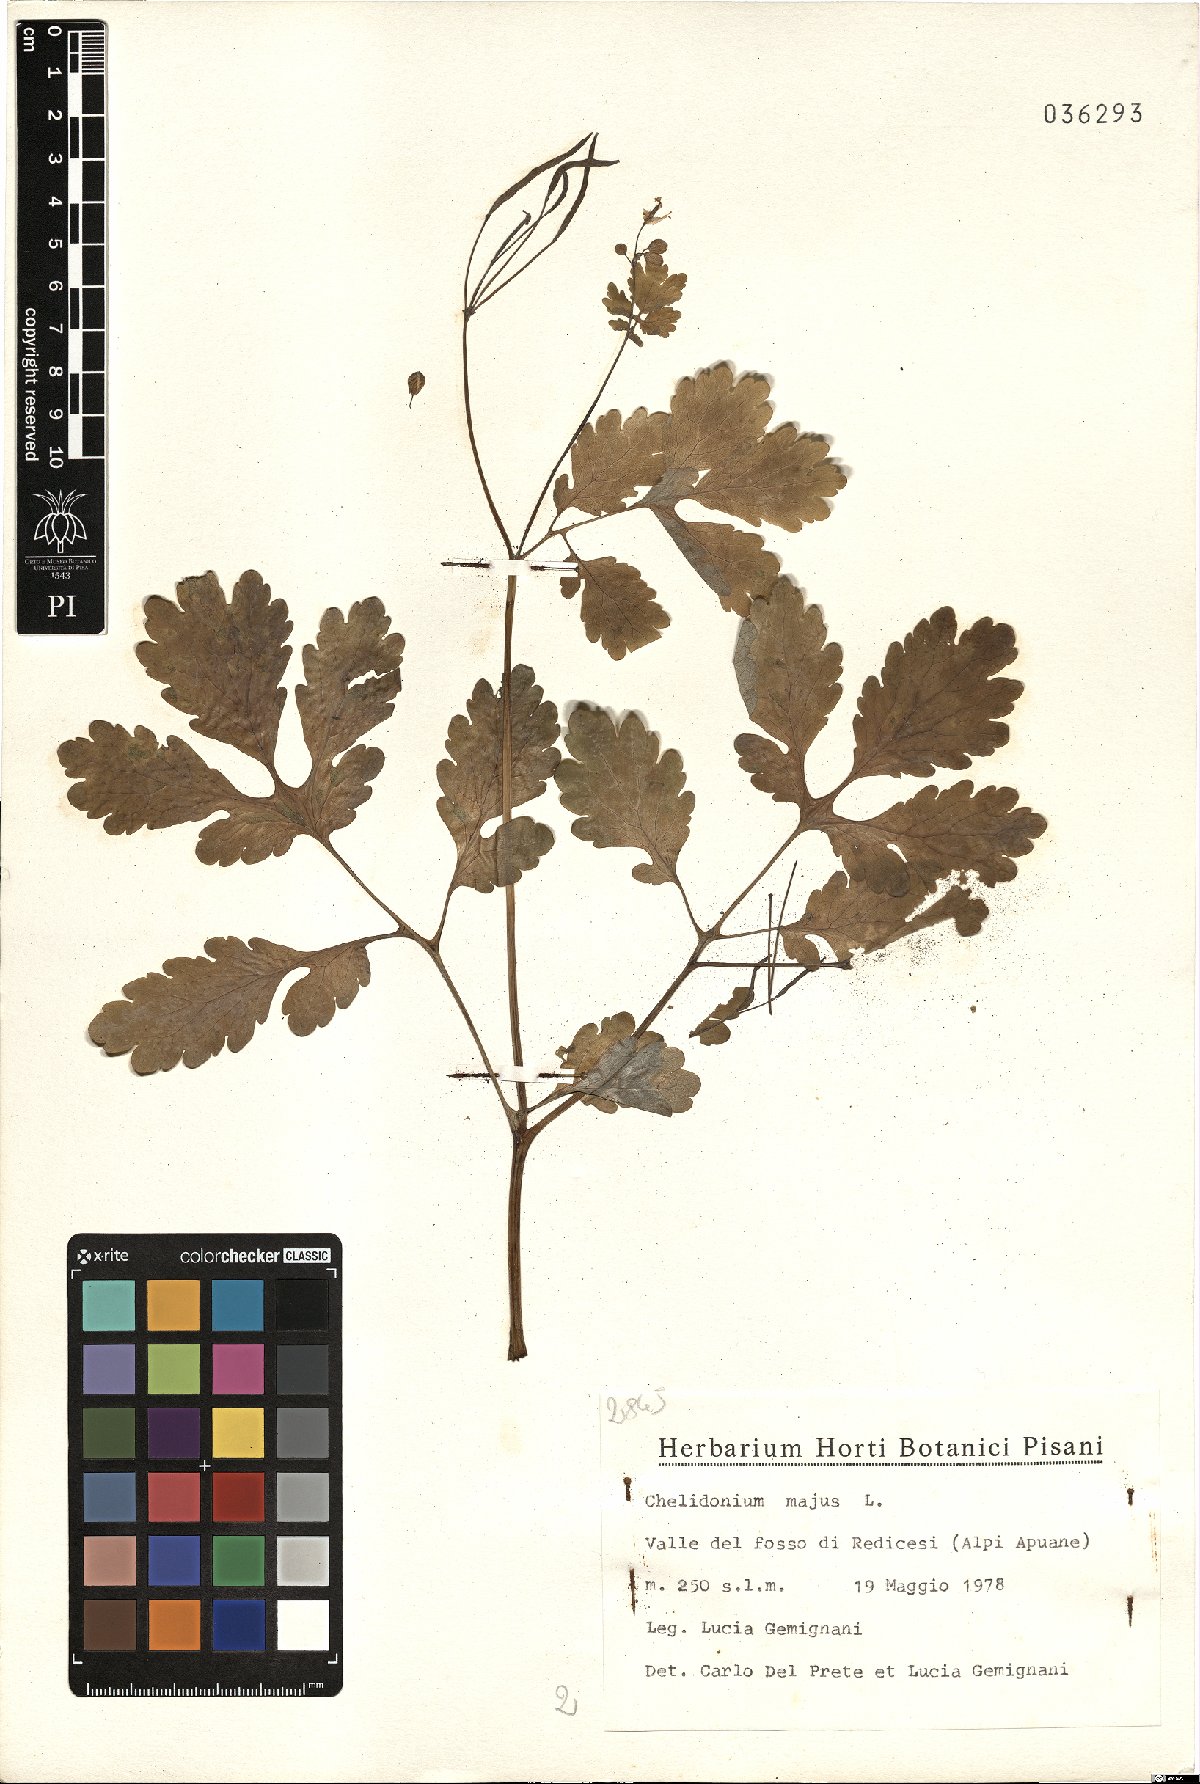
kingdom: Plantae
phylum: Tracheophyta
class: Magnoliopsida
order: Ranunculales
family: Papaveraceae
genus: Chelidonium
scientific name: Chelidonium majus
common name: Greater celandine
